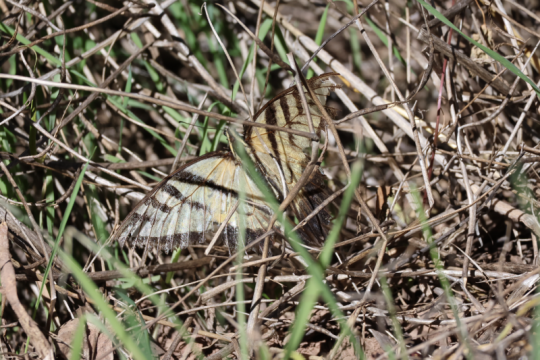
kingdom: Animalia
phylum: Arthropoda
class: Insecta
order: Lepidoptera
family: Papilionidae
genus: Papilio
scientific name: Papilio multicaudata
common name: Two-tailed Swallowtail
